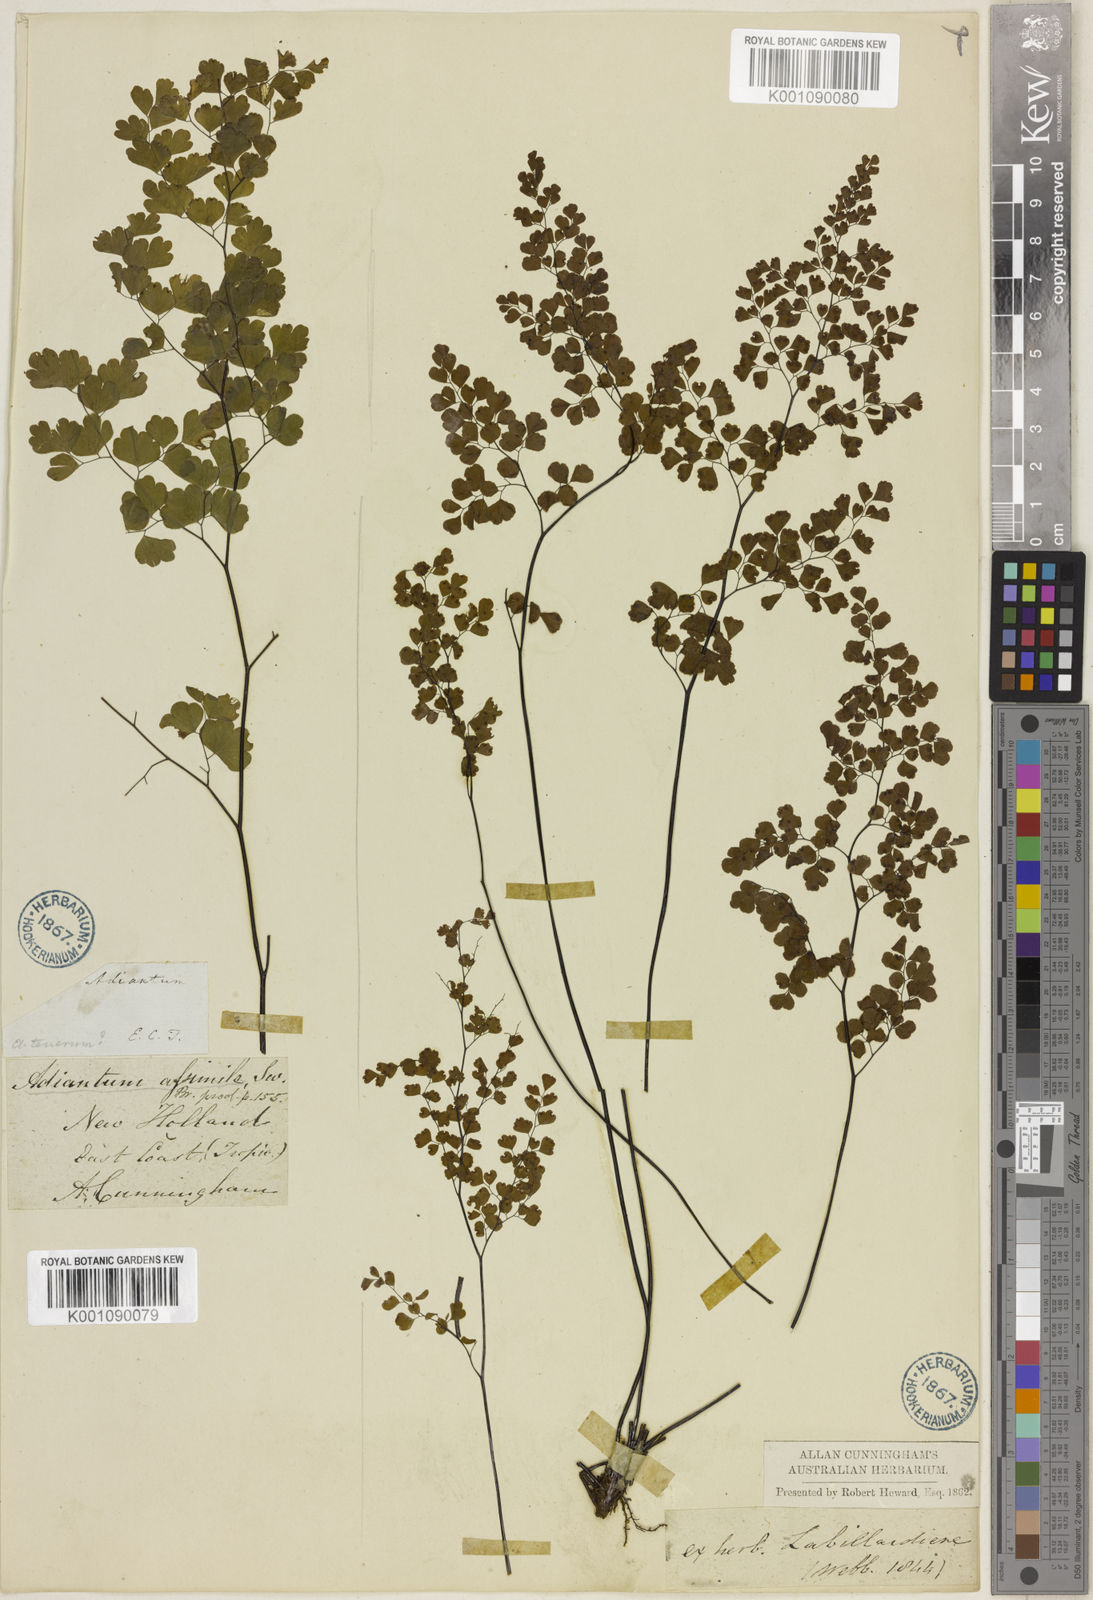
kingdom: Plantae
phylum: Tracheophyta
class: Polypodiopsida
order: Polypodiales
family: Pteridaceae
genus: Adiantum
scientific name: Adiantum aethiopicum
